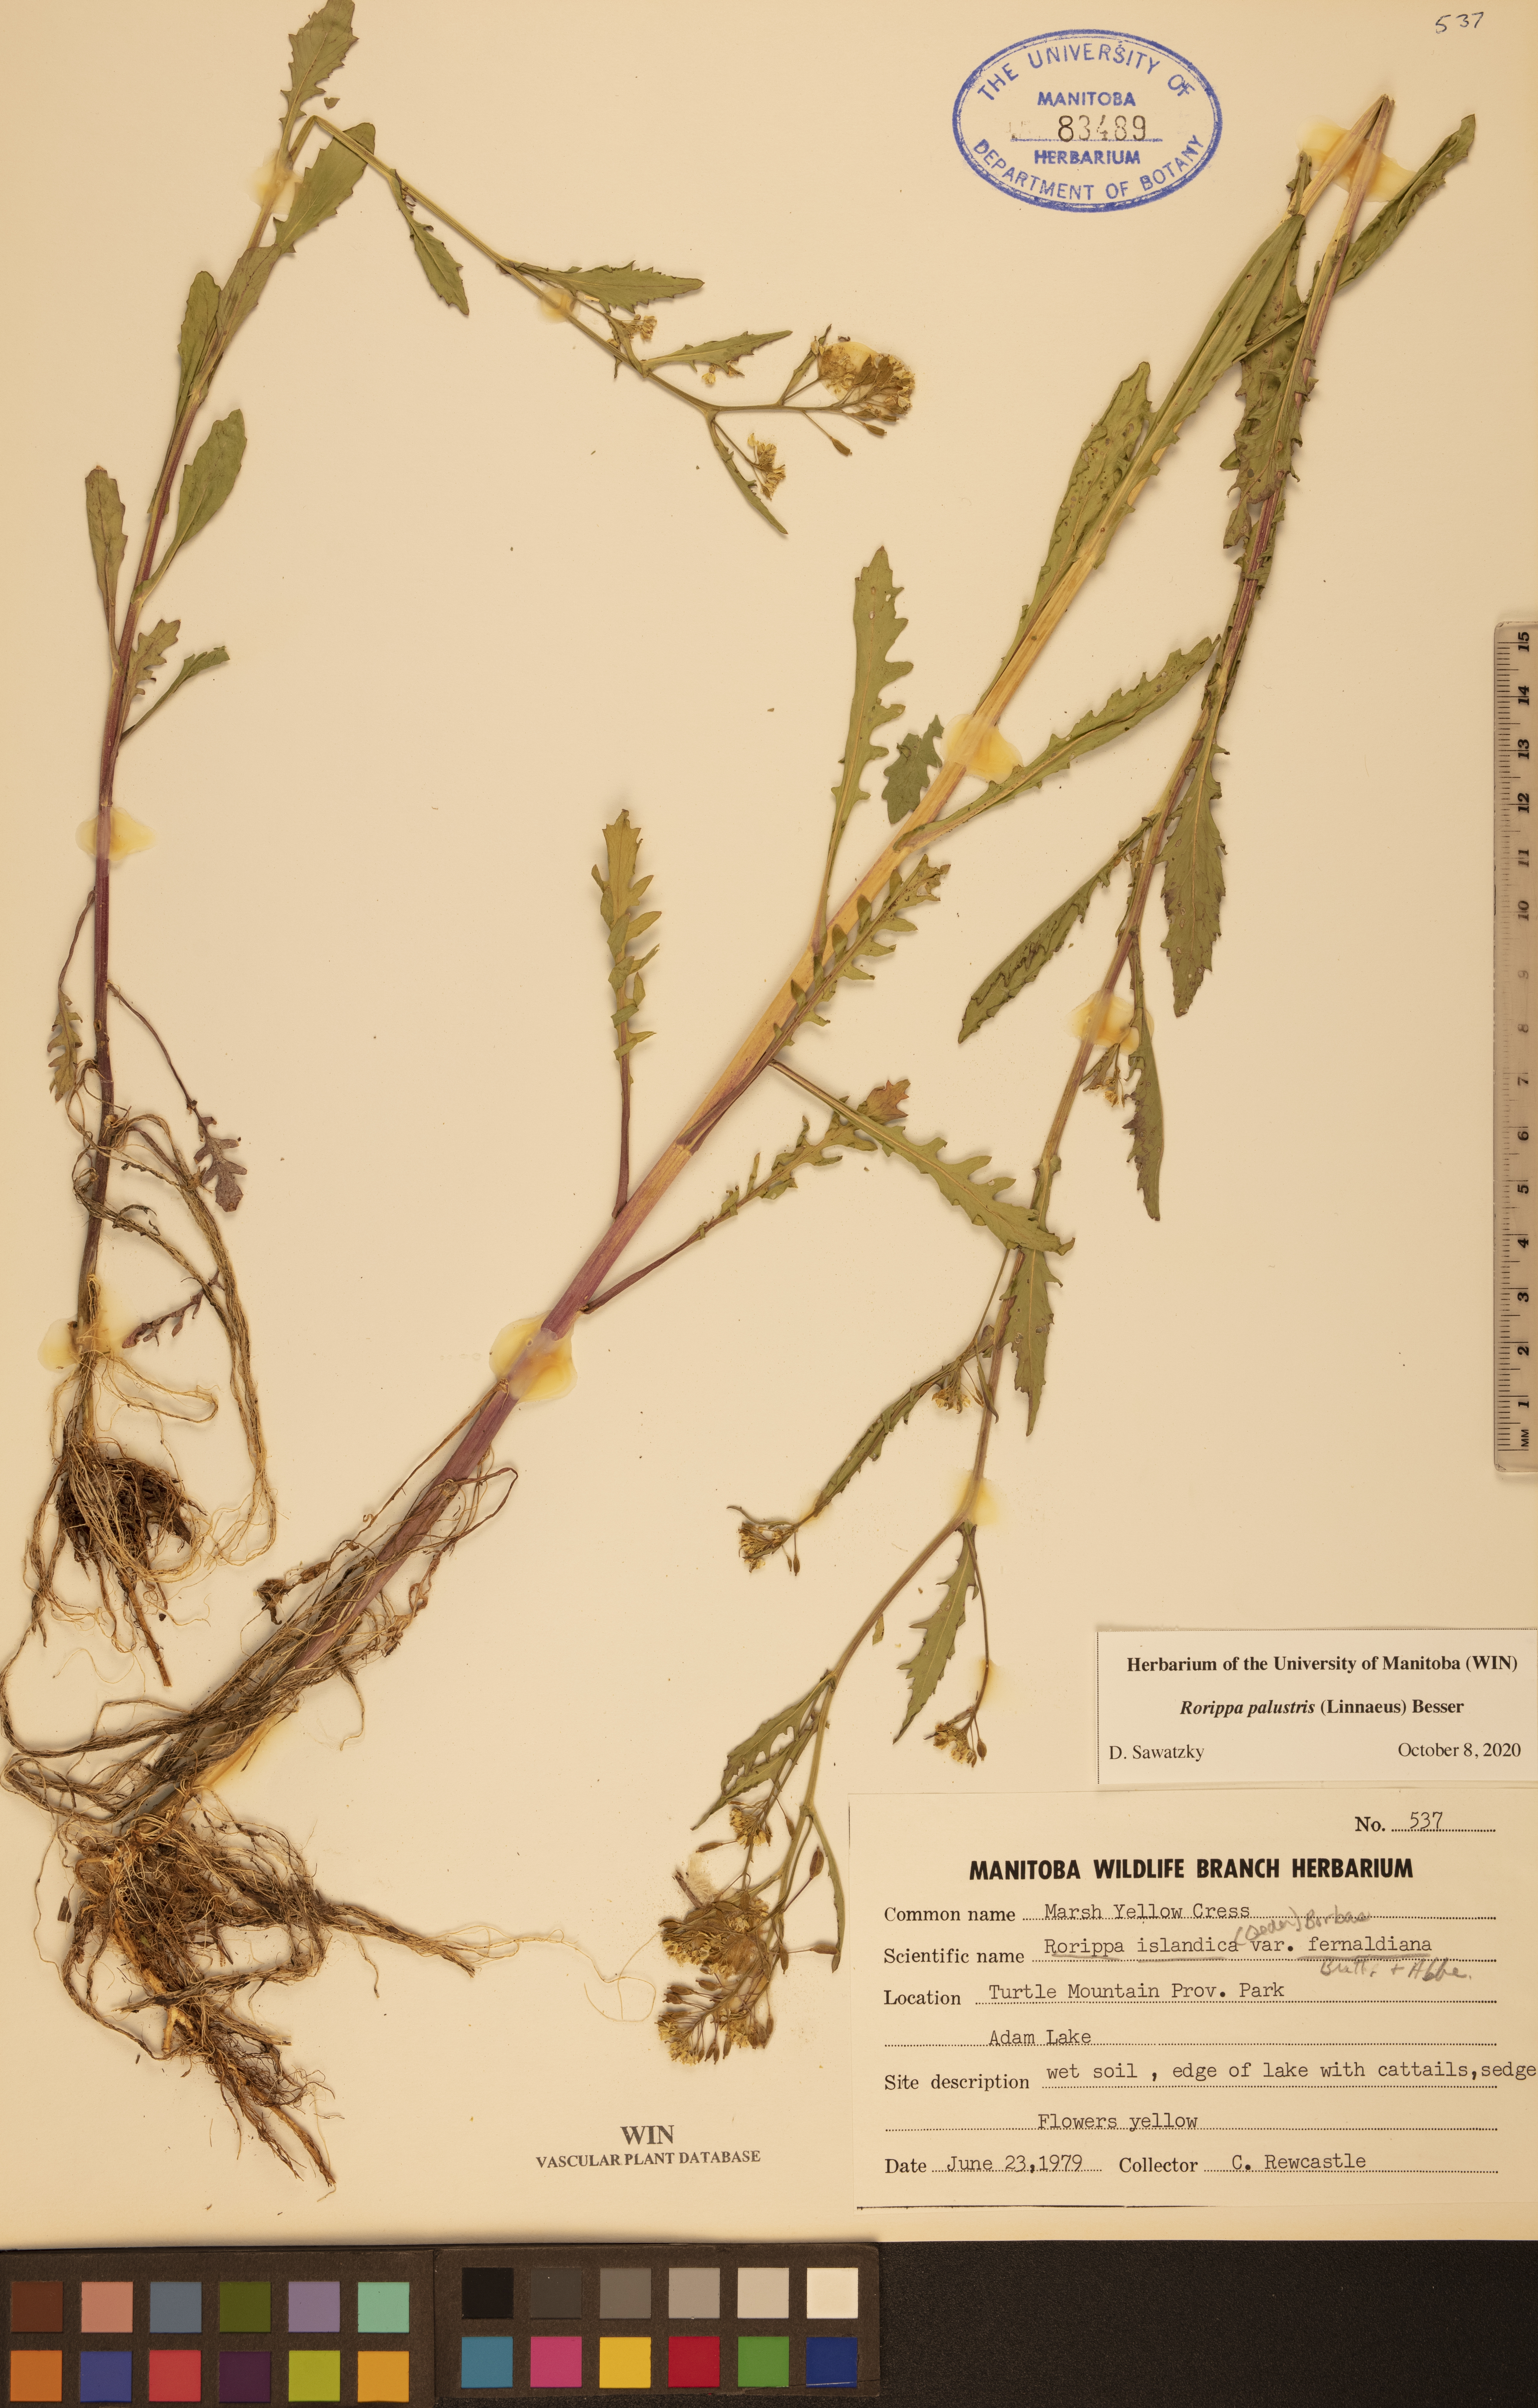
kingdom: Plantae
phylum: Tracheophyta
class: Magnoliopsida
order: Brassicales
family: Brassicaceae
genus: Rorippa
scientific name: Rorippa palustris
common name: Marsh yellow-cress
